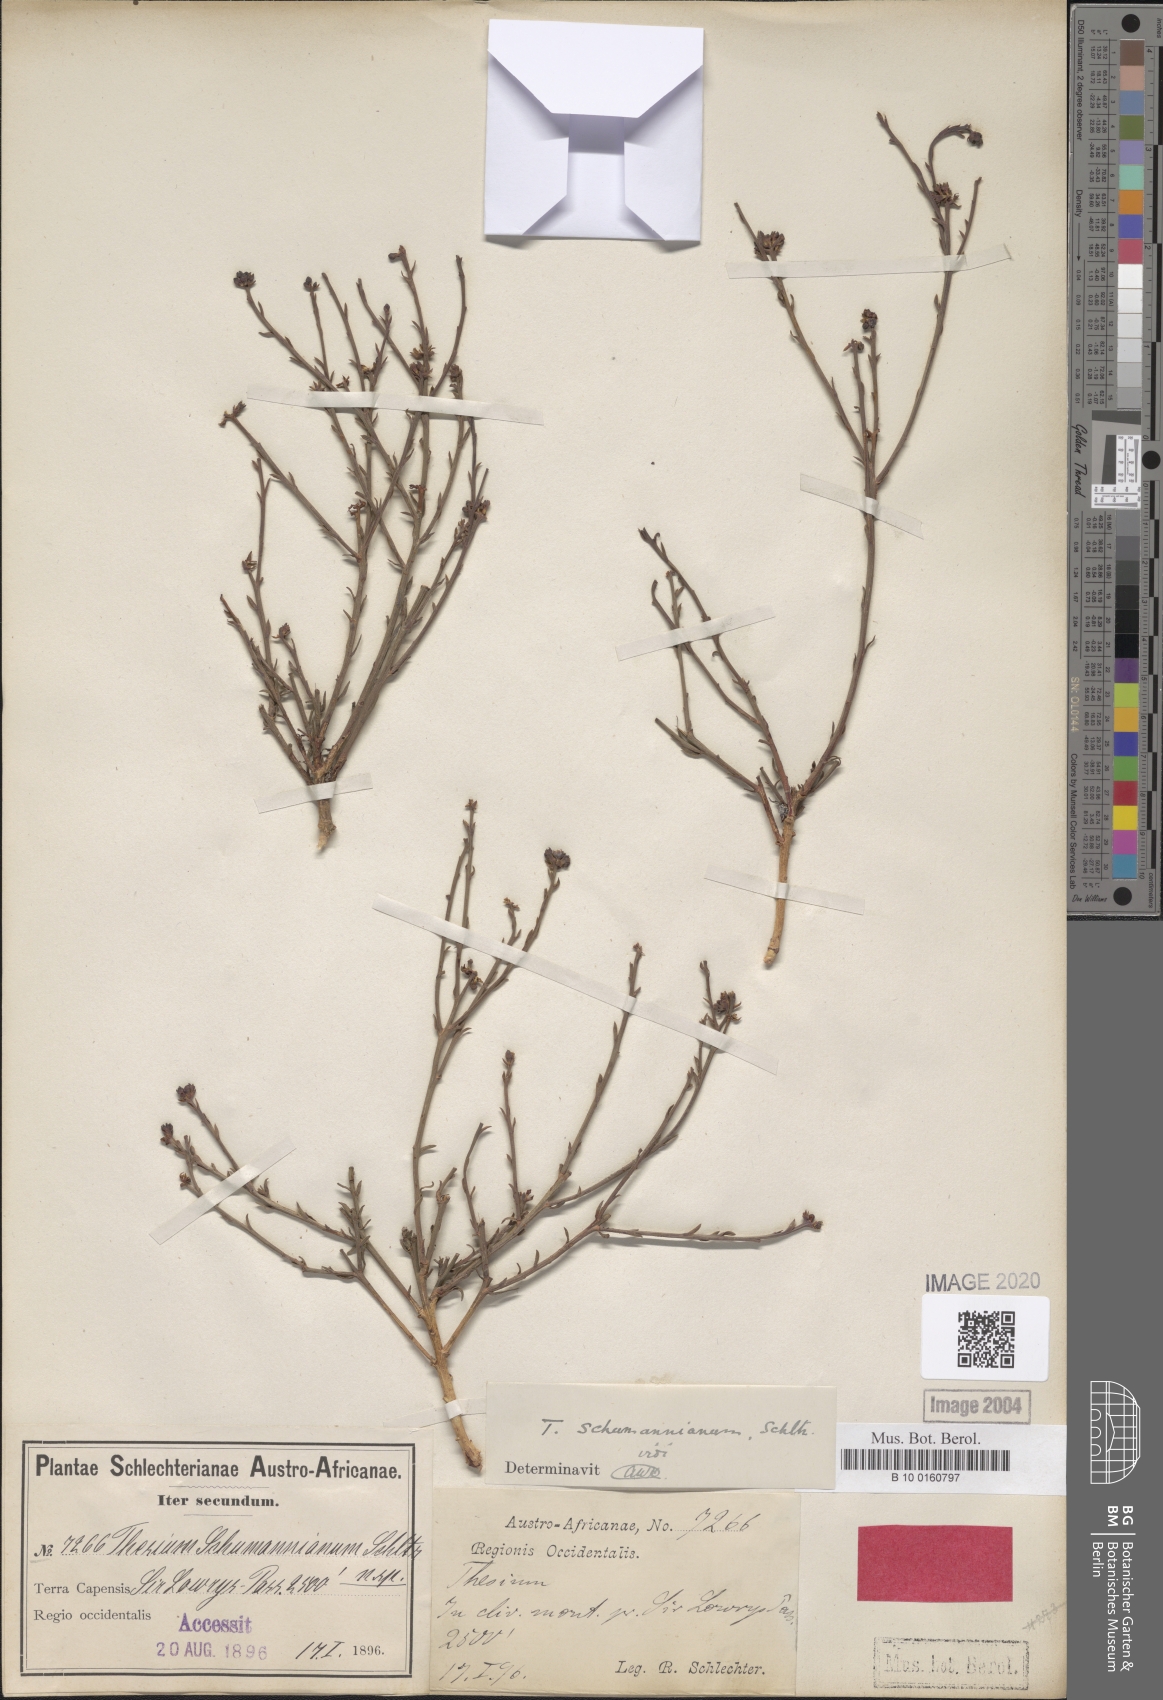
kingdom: Plantae
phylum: Tracheophyta
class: Magnoliopsida
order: Santalales
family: Thesiaceae
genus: Thesium
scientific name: Thesium schumannianum
